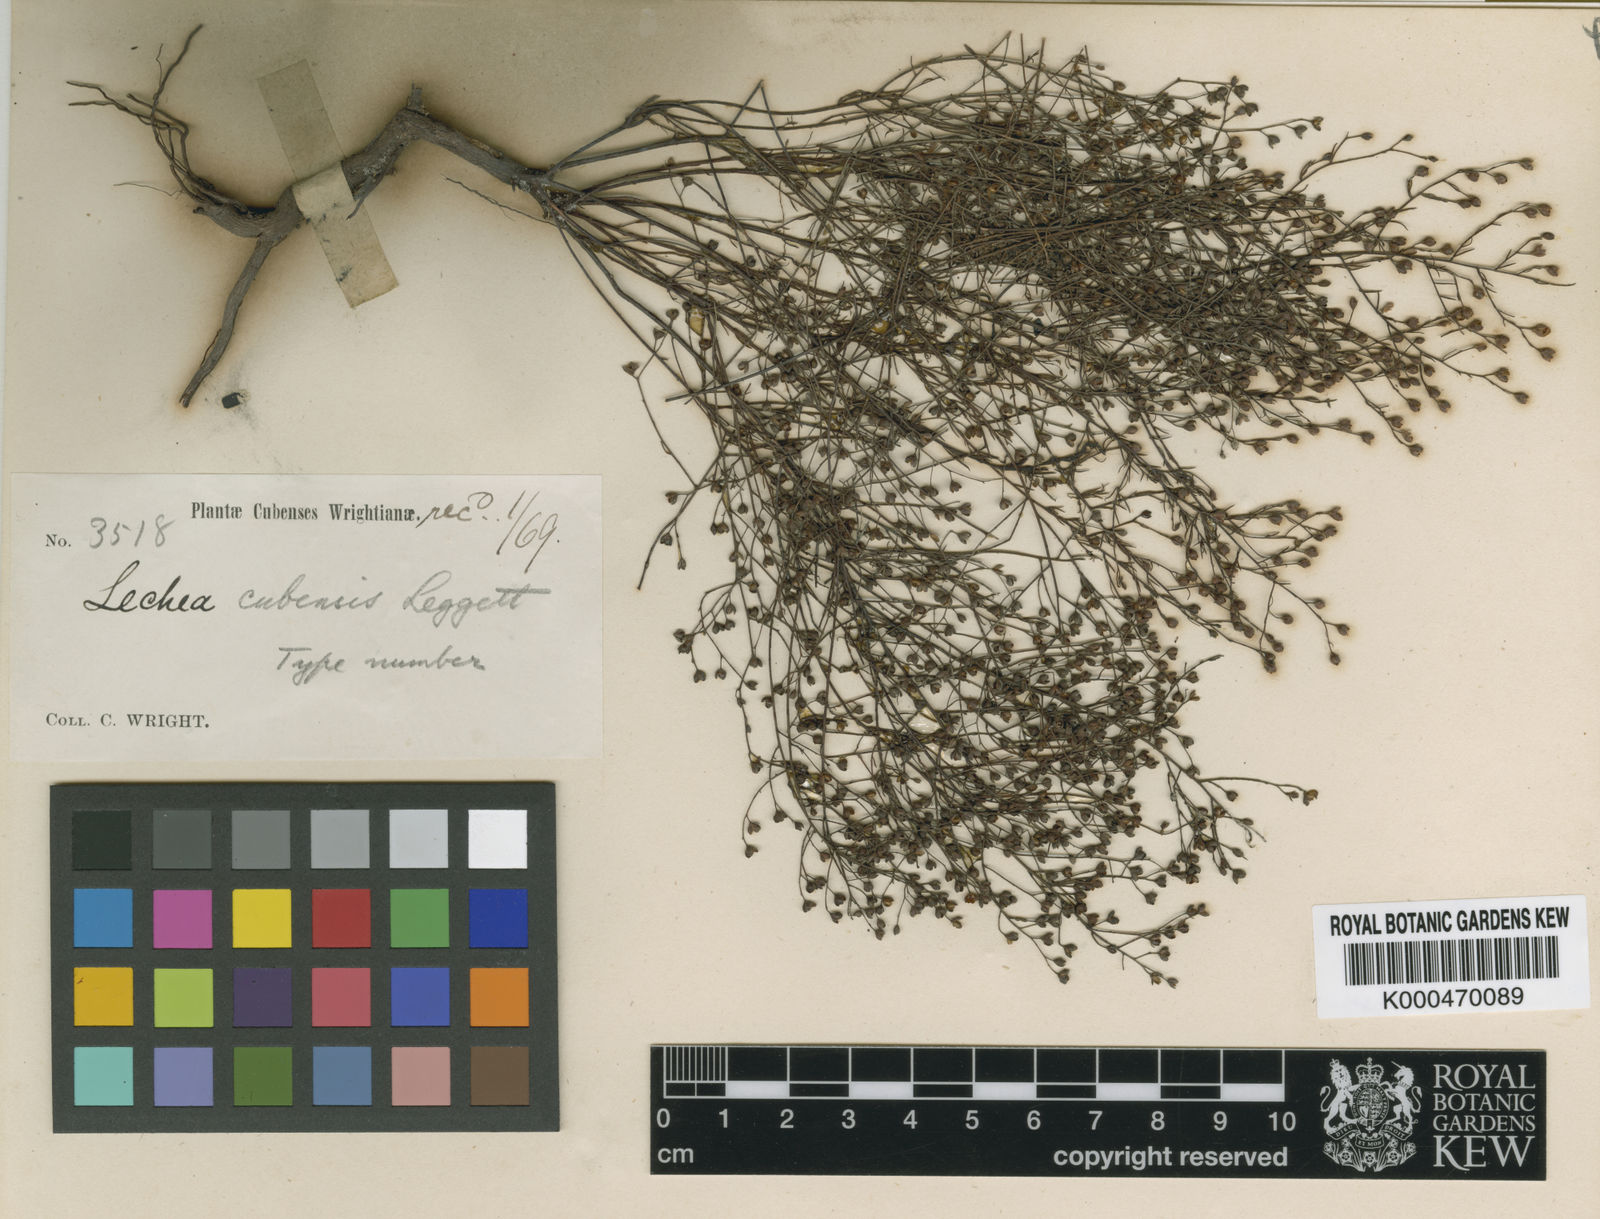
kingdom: Plantae
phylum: Tracheophyta
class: Magnoliopsida
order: Malvales
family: Cistaceae
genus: Lechea
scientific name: Lechea cubensis
